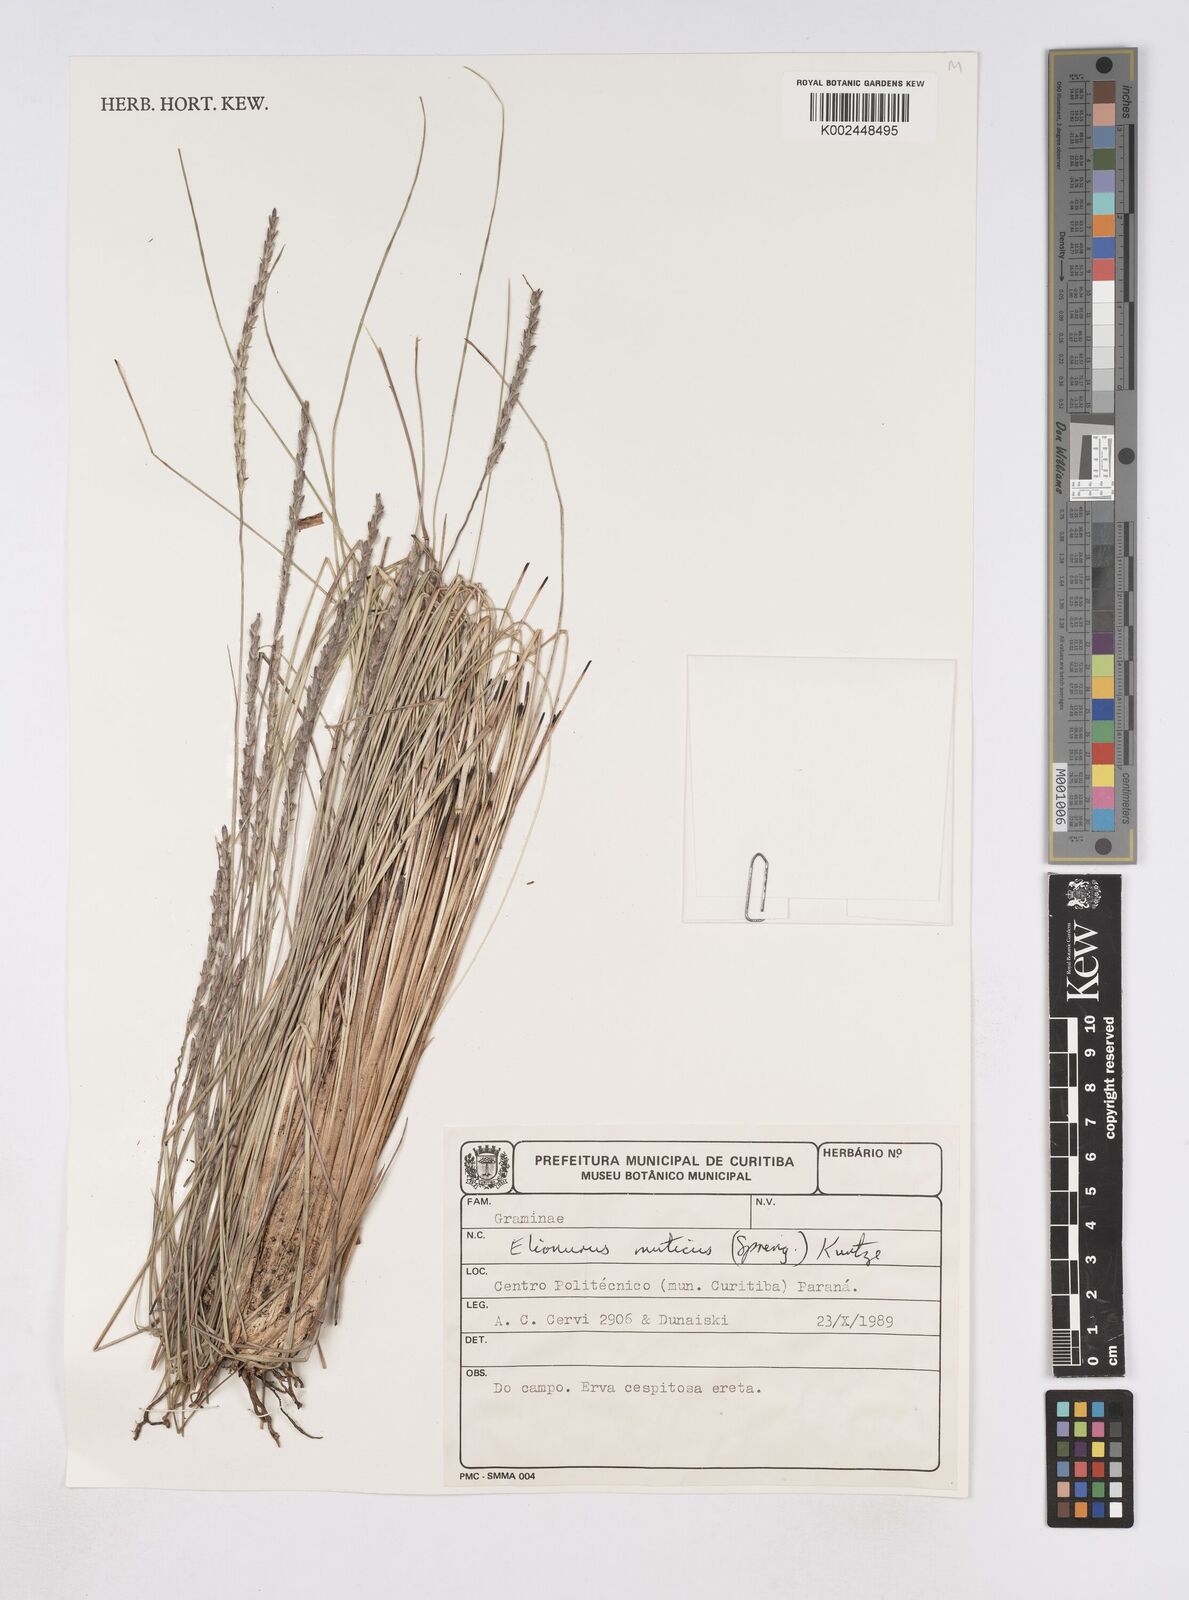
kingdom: Plantae
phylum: Tracheophyta
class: Liliopsida
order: Poales
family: Poaceae
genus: Elionurus
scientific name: Elionurus muticus
